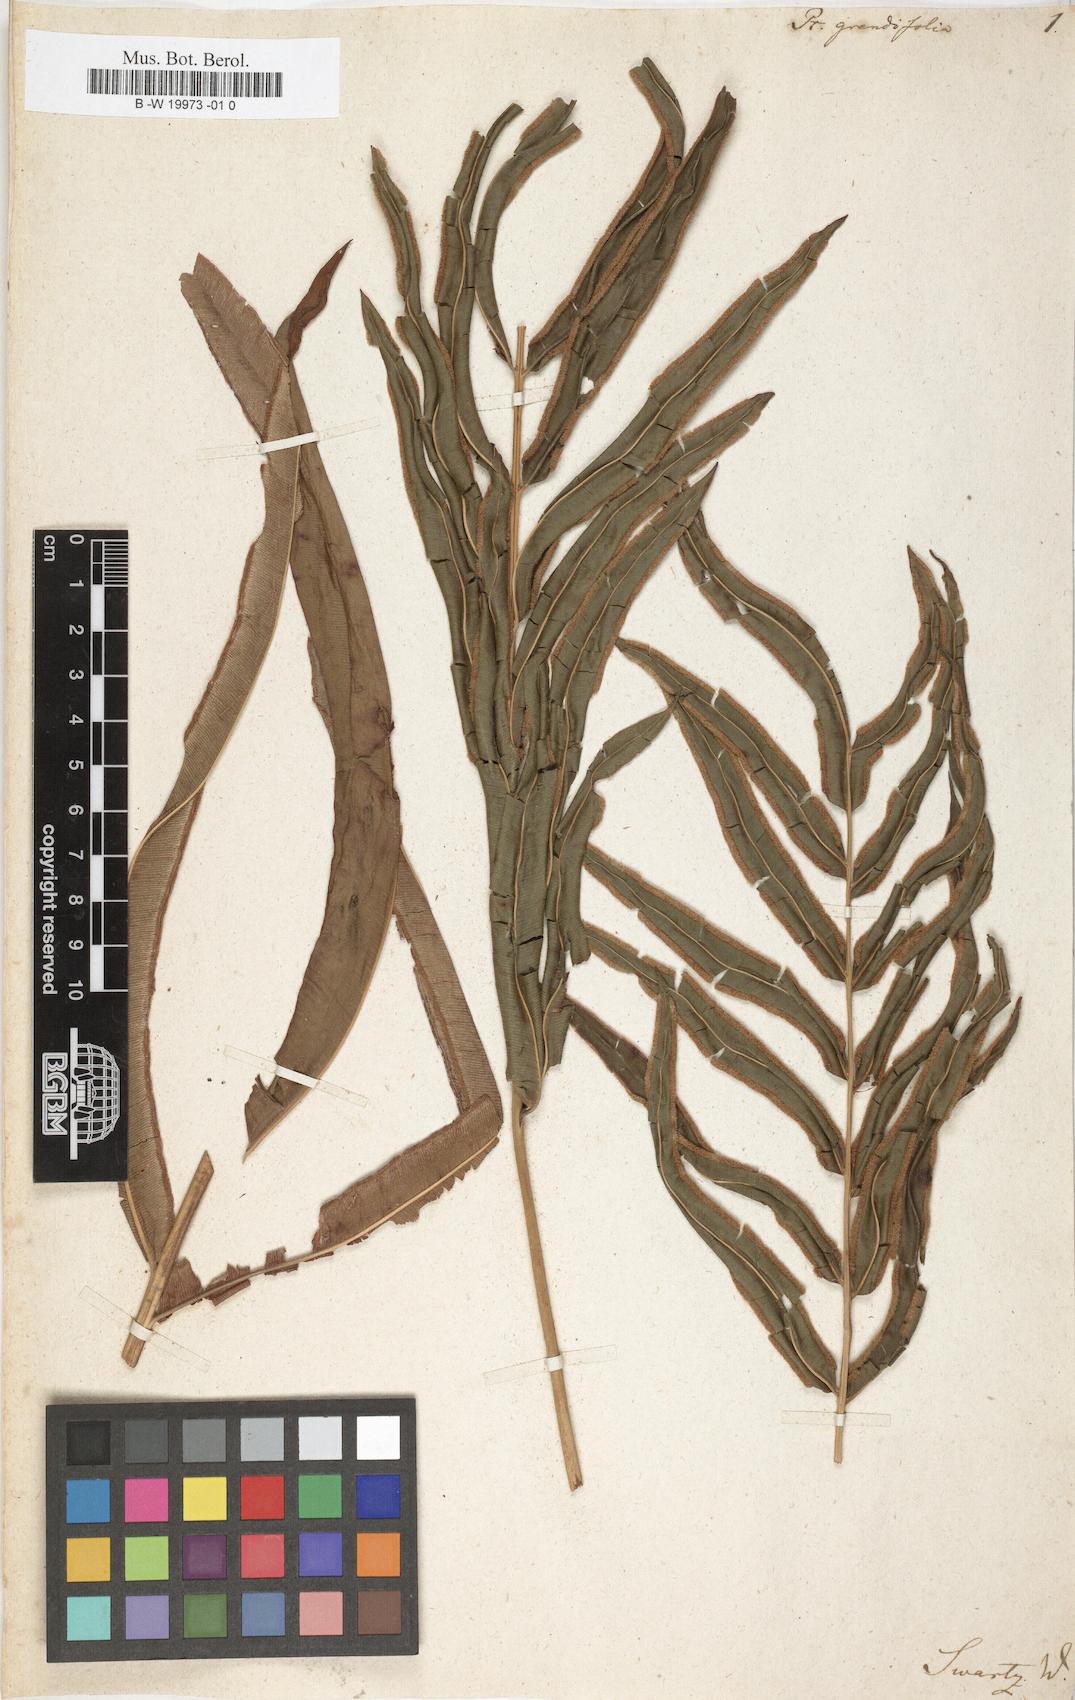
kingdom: Plantae
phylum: Tracheophyta
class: Polypodiopsida
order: Polypodiales
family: Pteridaceae
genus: Pteris
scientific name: Pteris grandifolia
